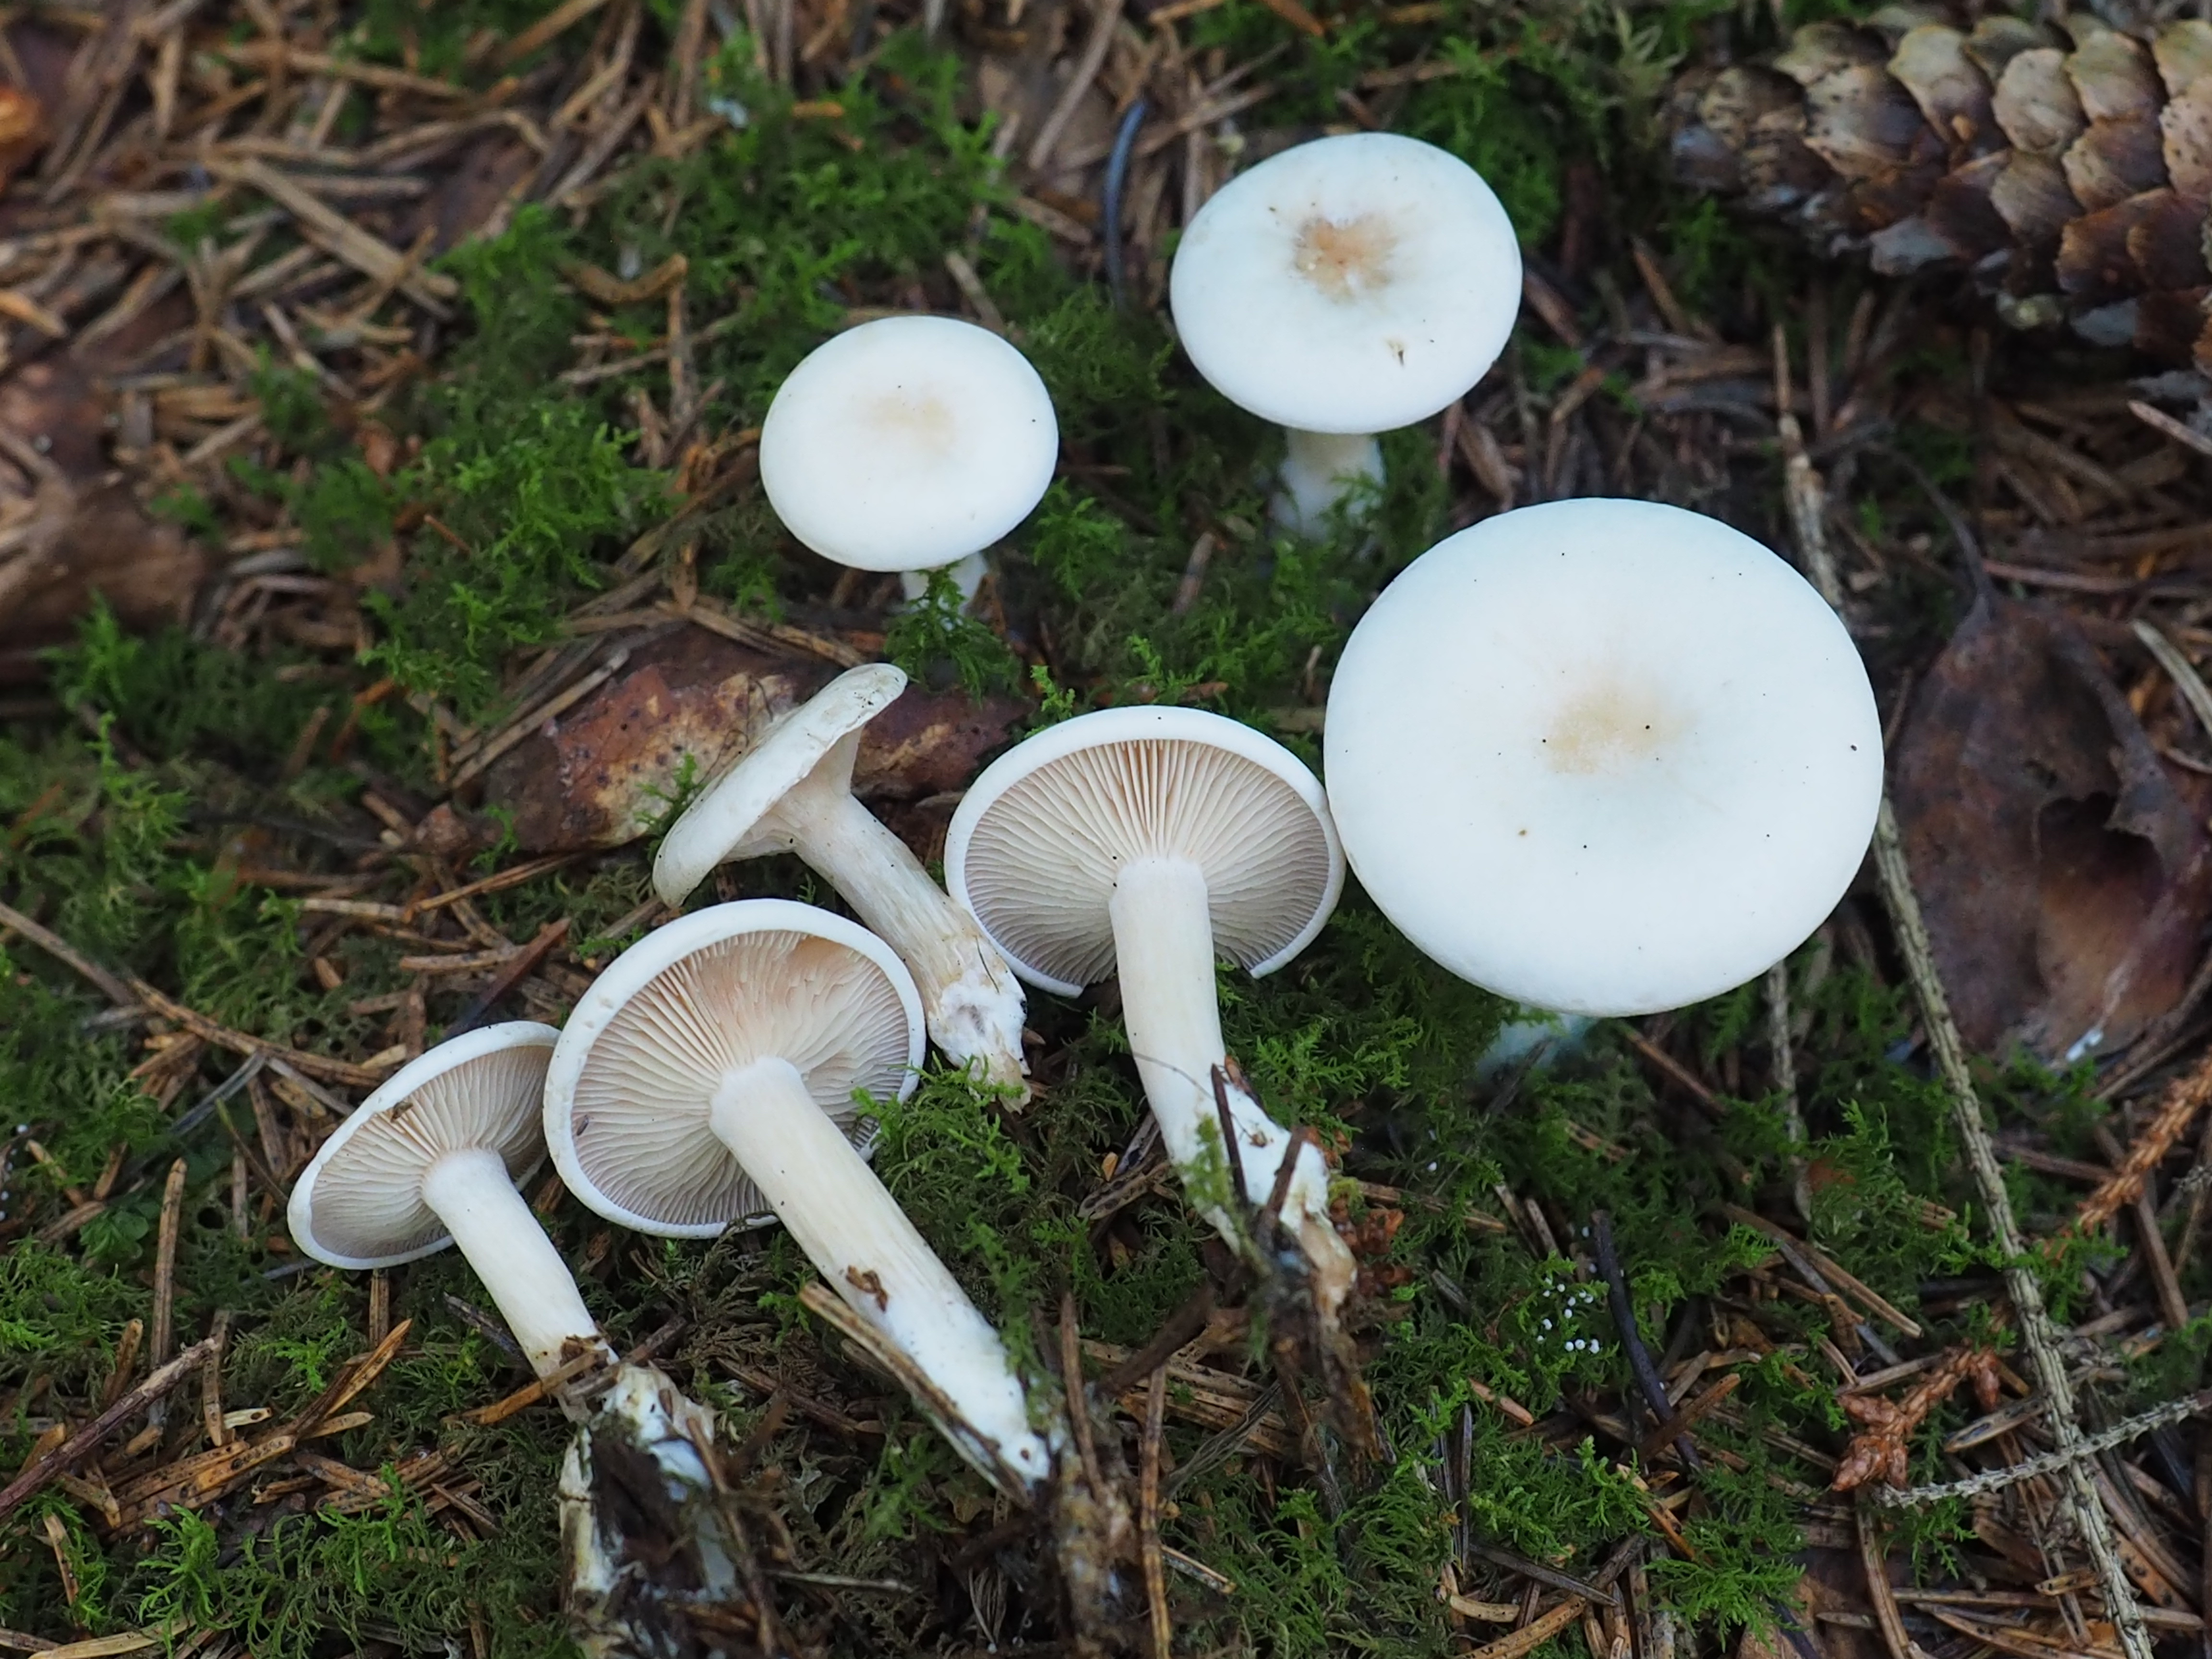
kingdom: Fungi
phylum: Basidiomycota
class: Agaricomycetes
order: Agaricales
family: Tricholomataceae
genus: Clitocybe
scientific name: Clitocybe phyllophila
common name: Frosty funnel
